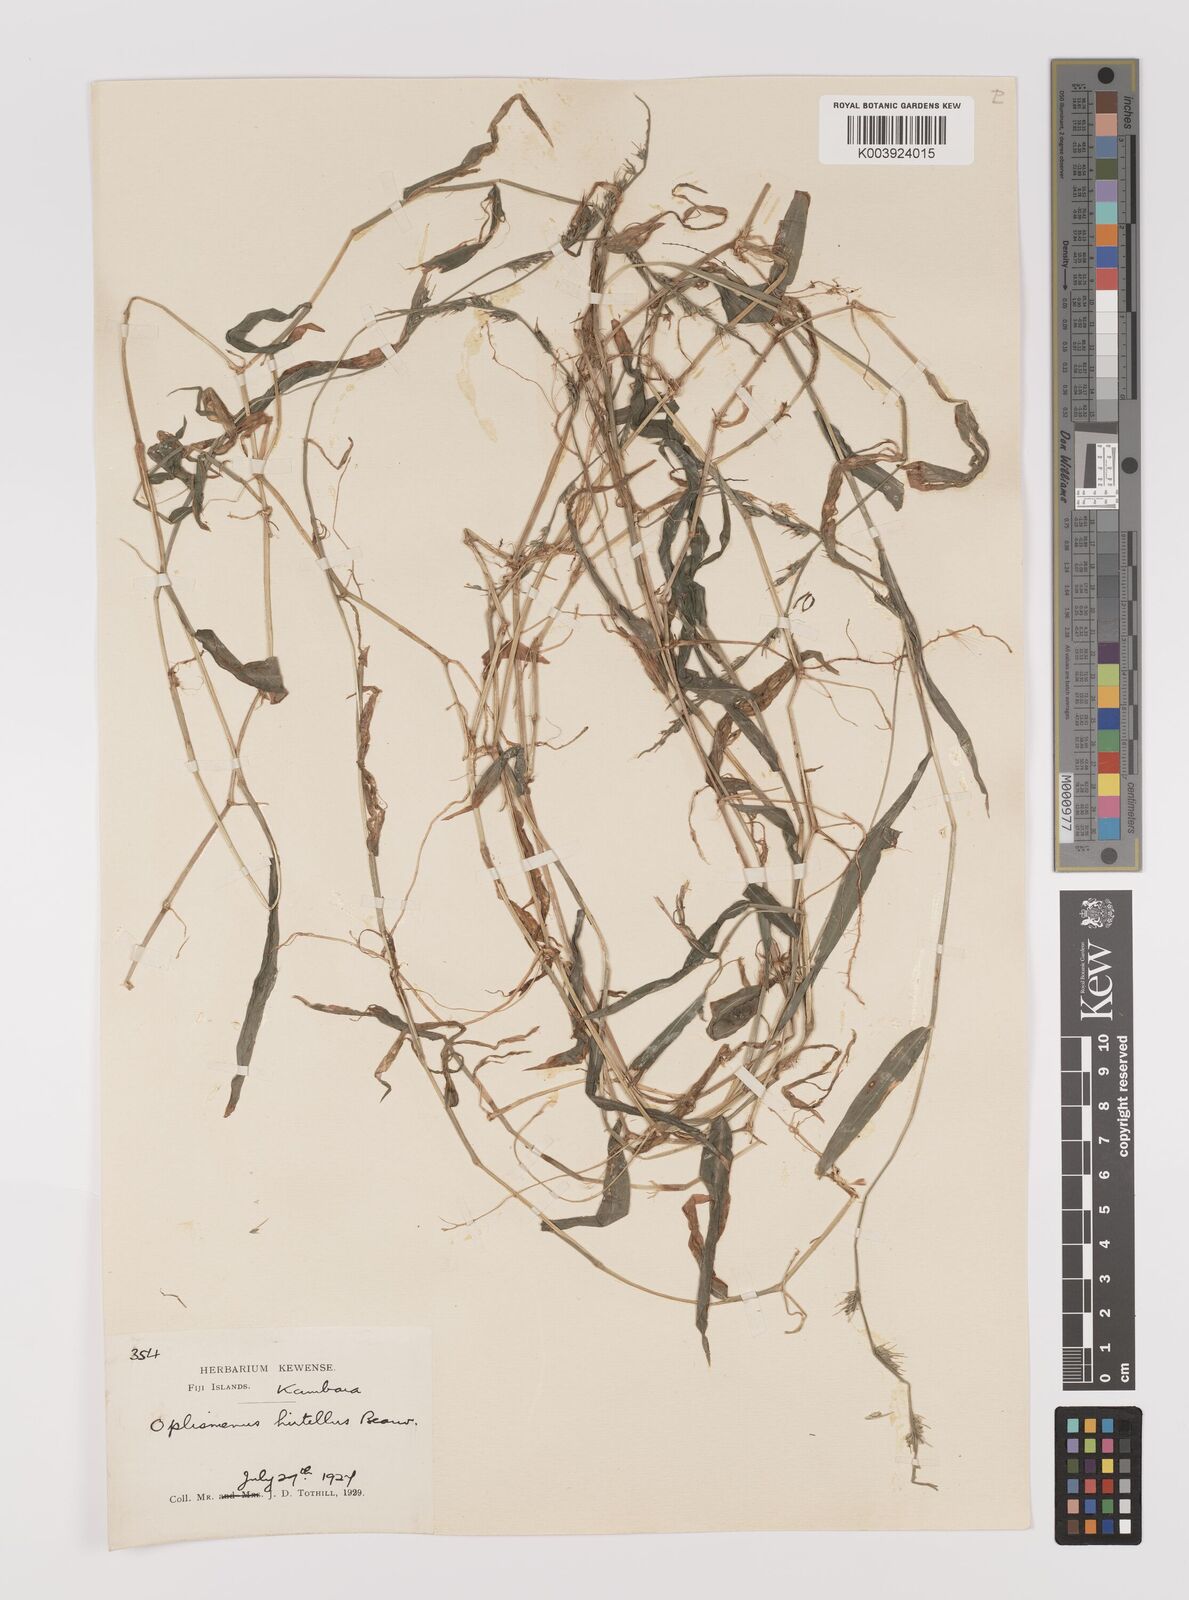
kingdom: Plantae
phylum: Tracheophyta
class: Liliopsida
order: Poales
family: Poaceae
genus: Oplismenus
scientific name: Oplismenus hirtellus
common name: Basketgrass
